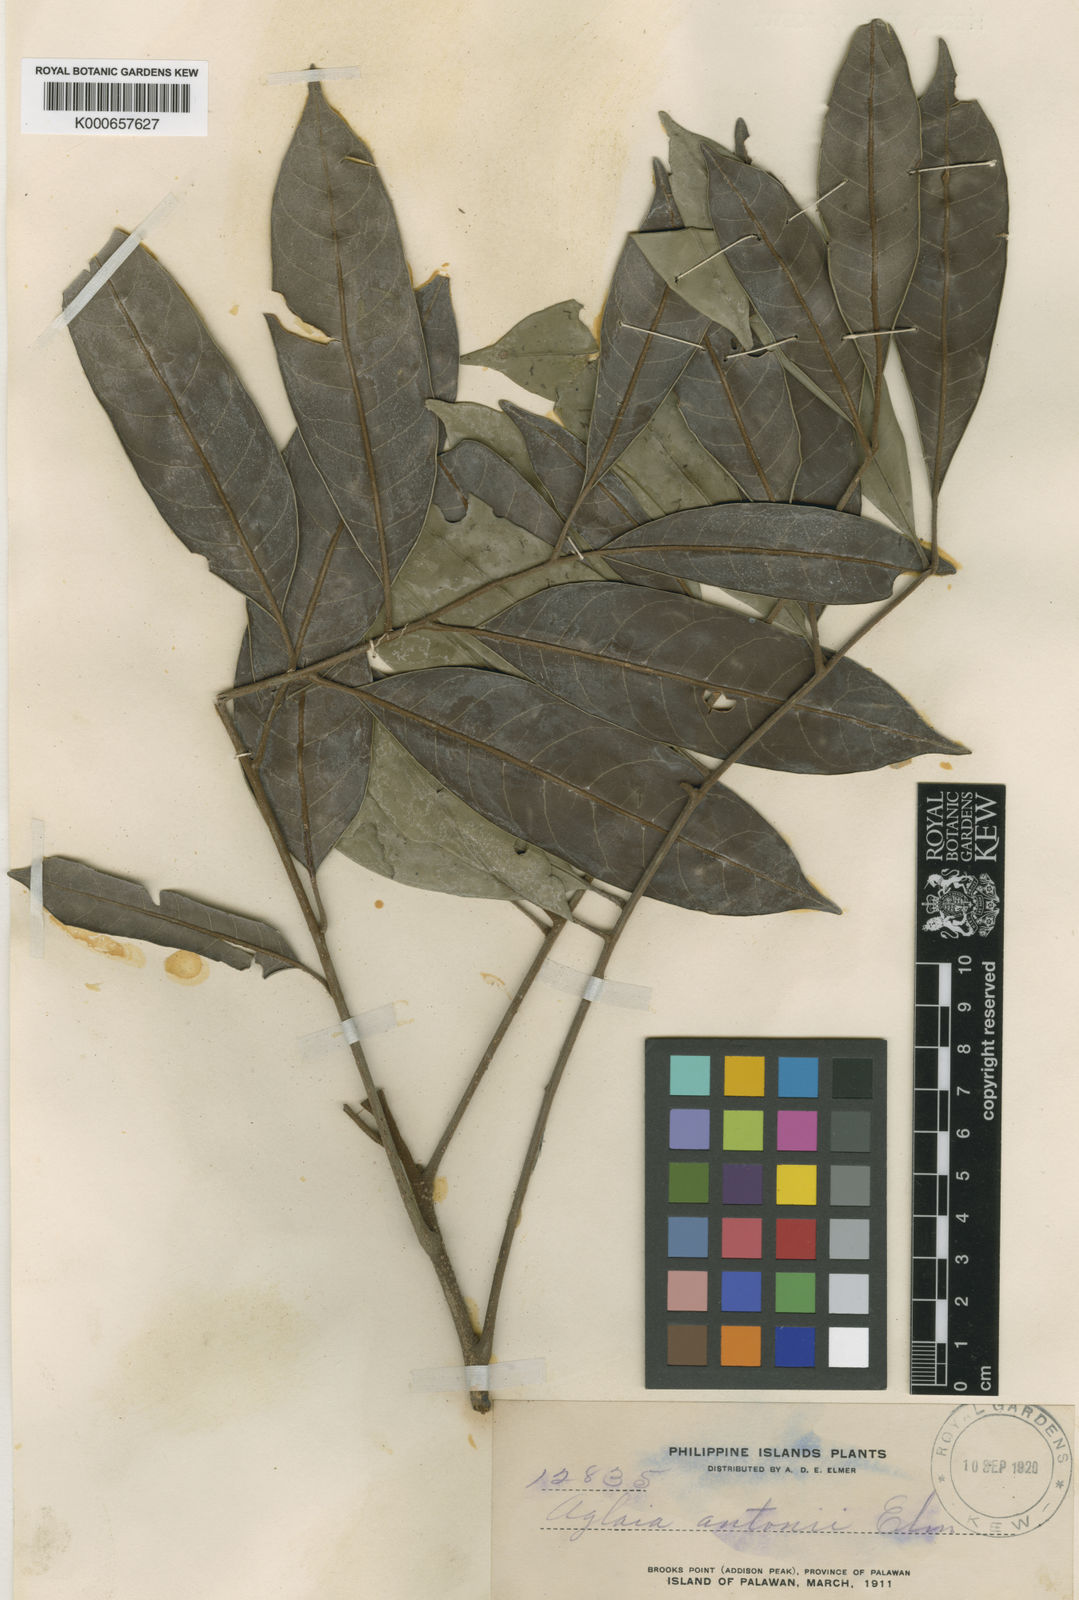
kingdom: Plantae
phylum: Tracheophyta
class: Magnoliopsida
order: Sapindales
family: Meliaceae
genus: Aglaia
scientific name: Aglaia elliptica
